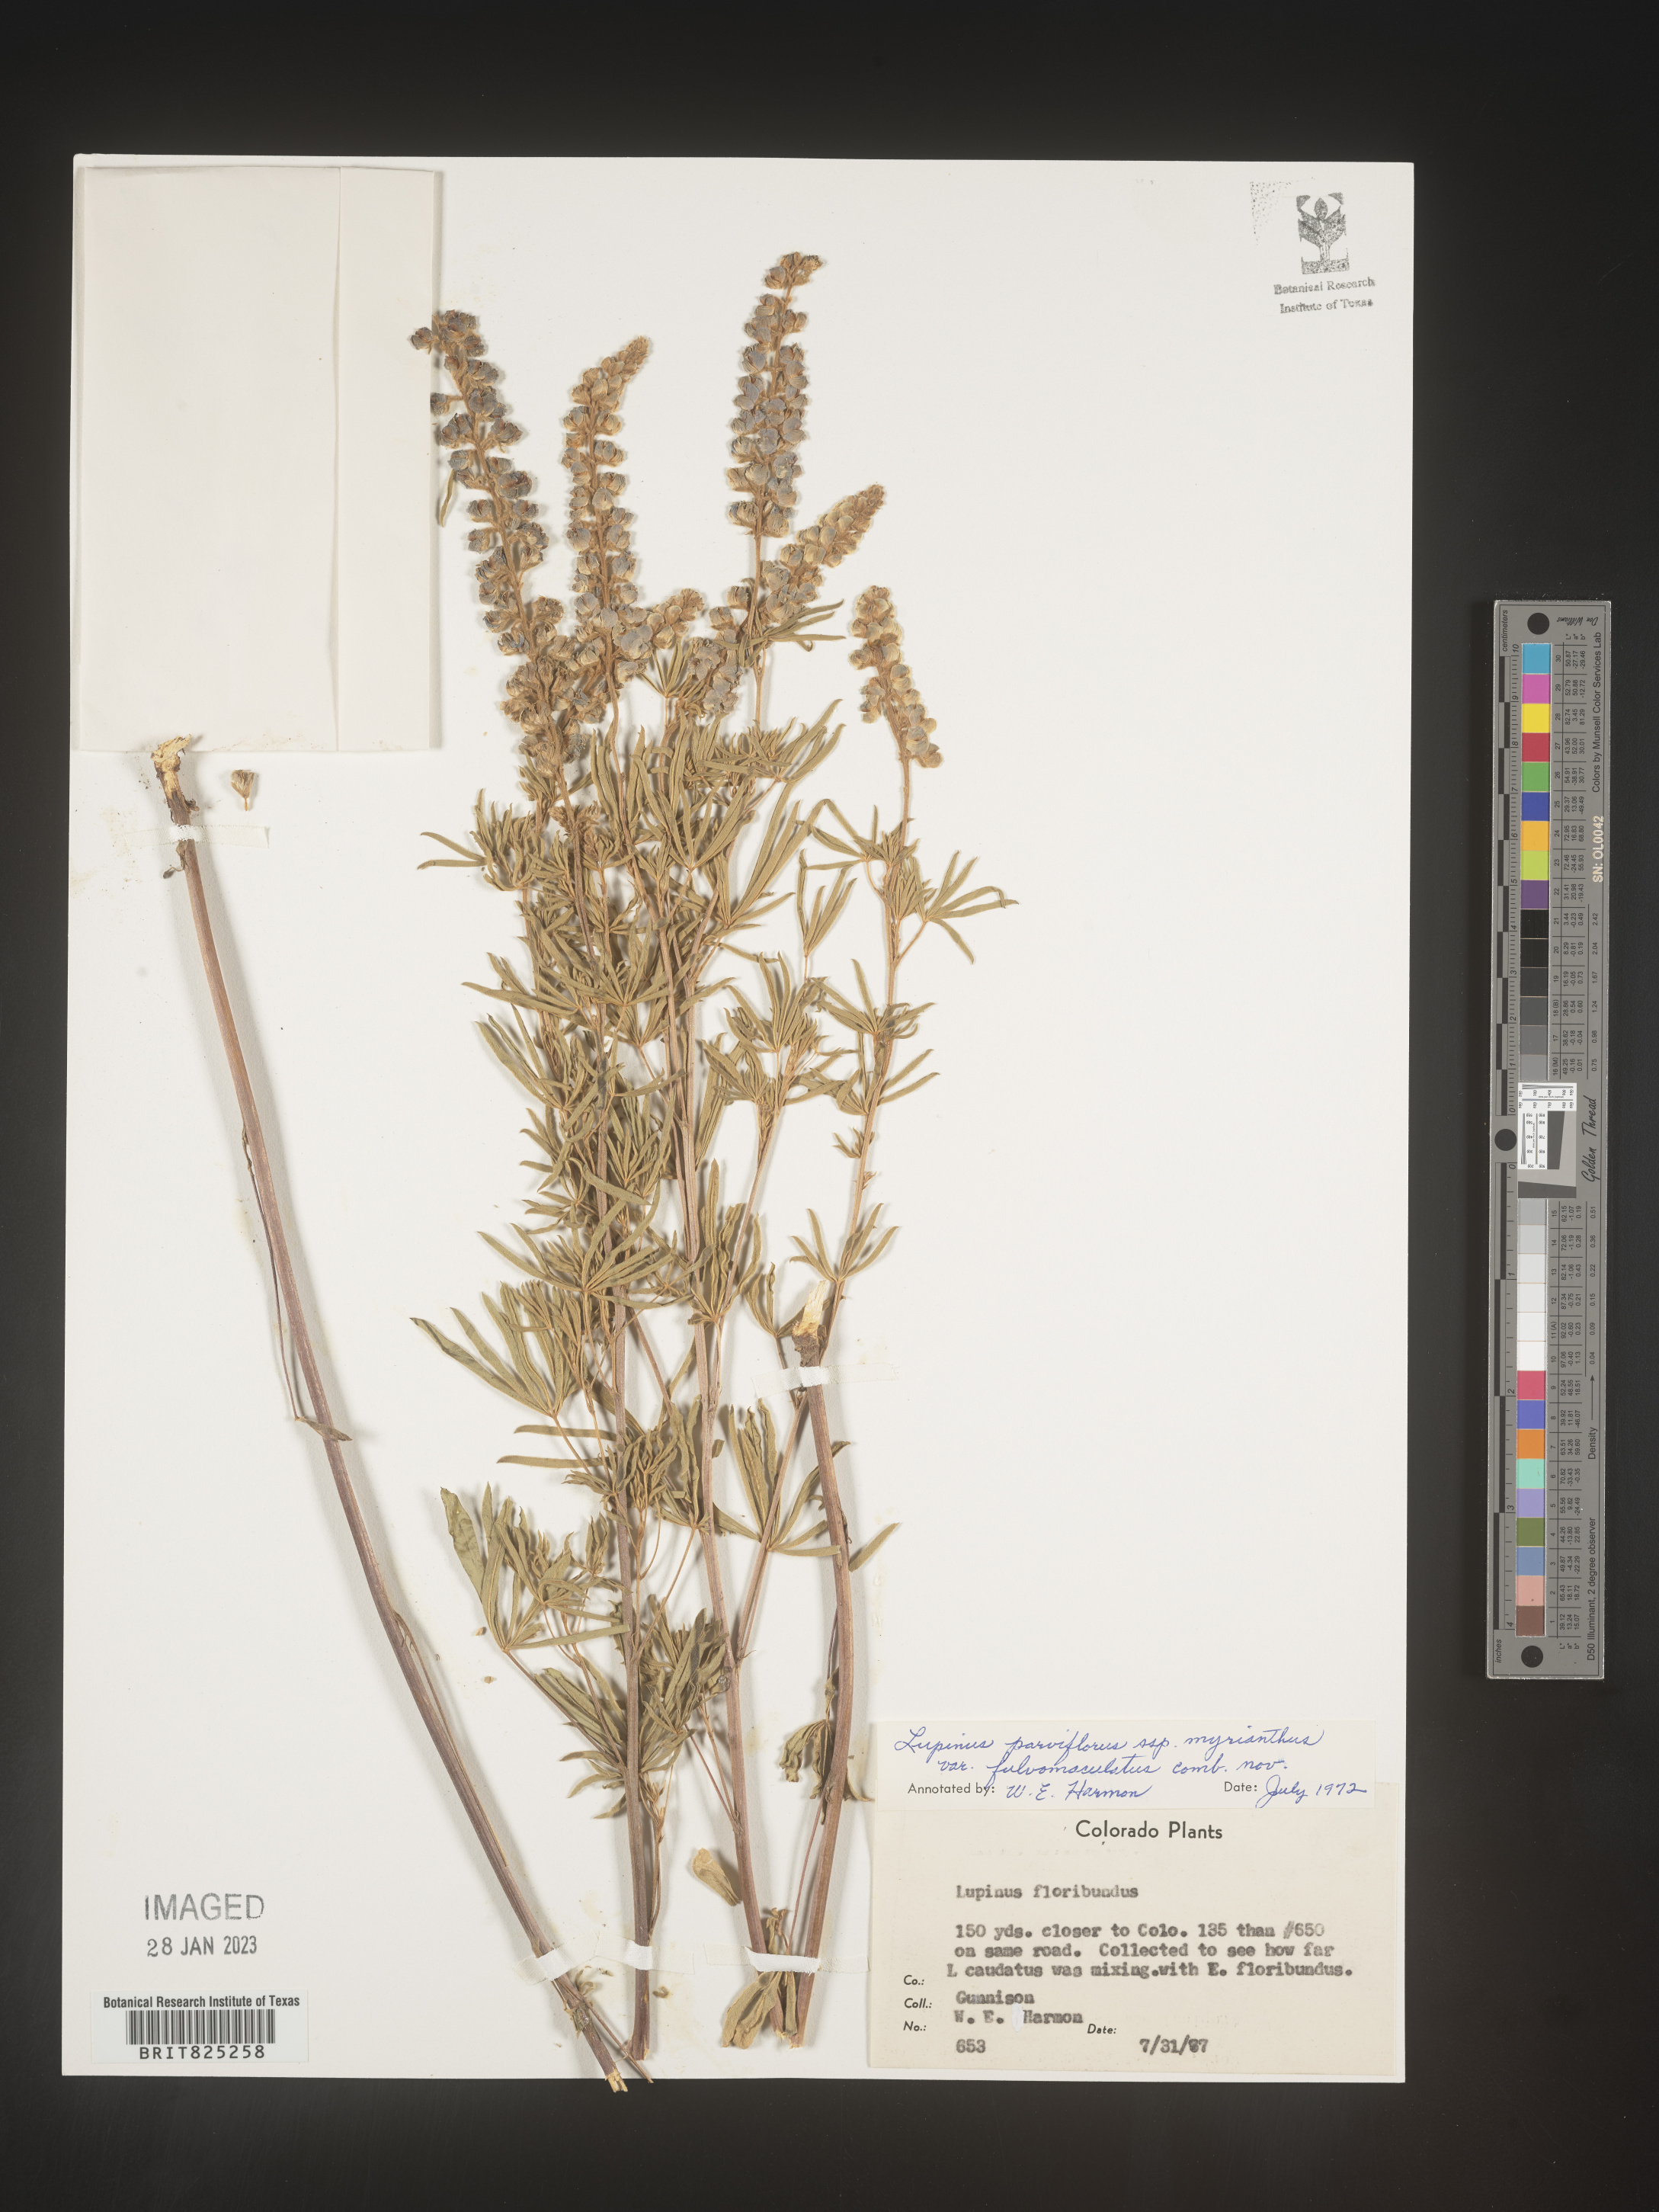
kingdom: Plantae
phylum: Tracheophyta
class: Magnoliopsida
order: Fabales
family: Fabaceae
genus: Lupinus
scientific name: Lupinus
